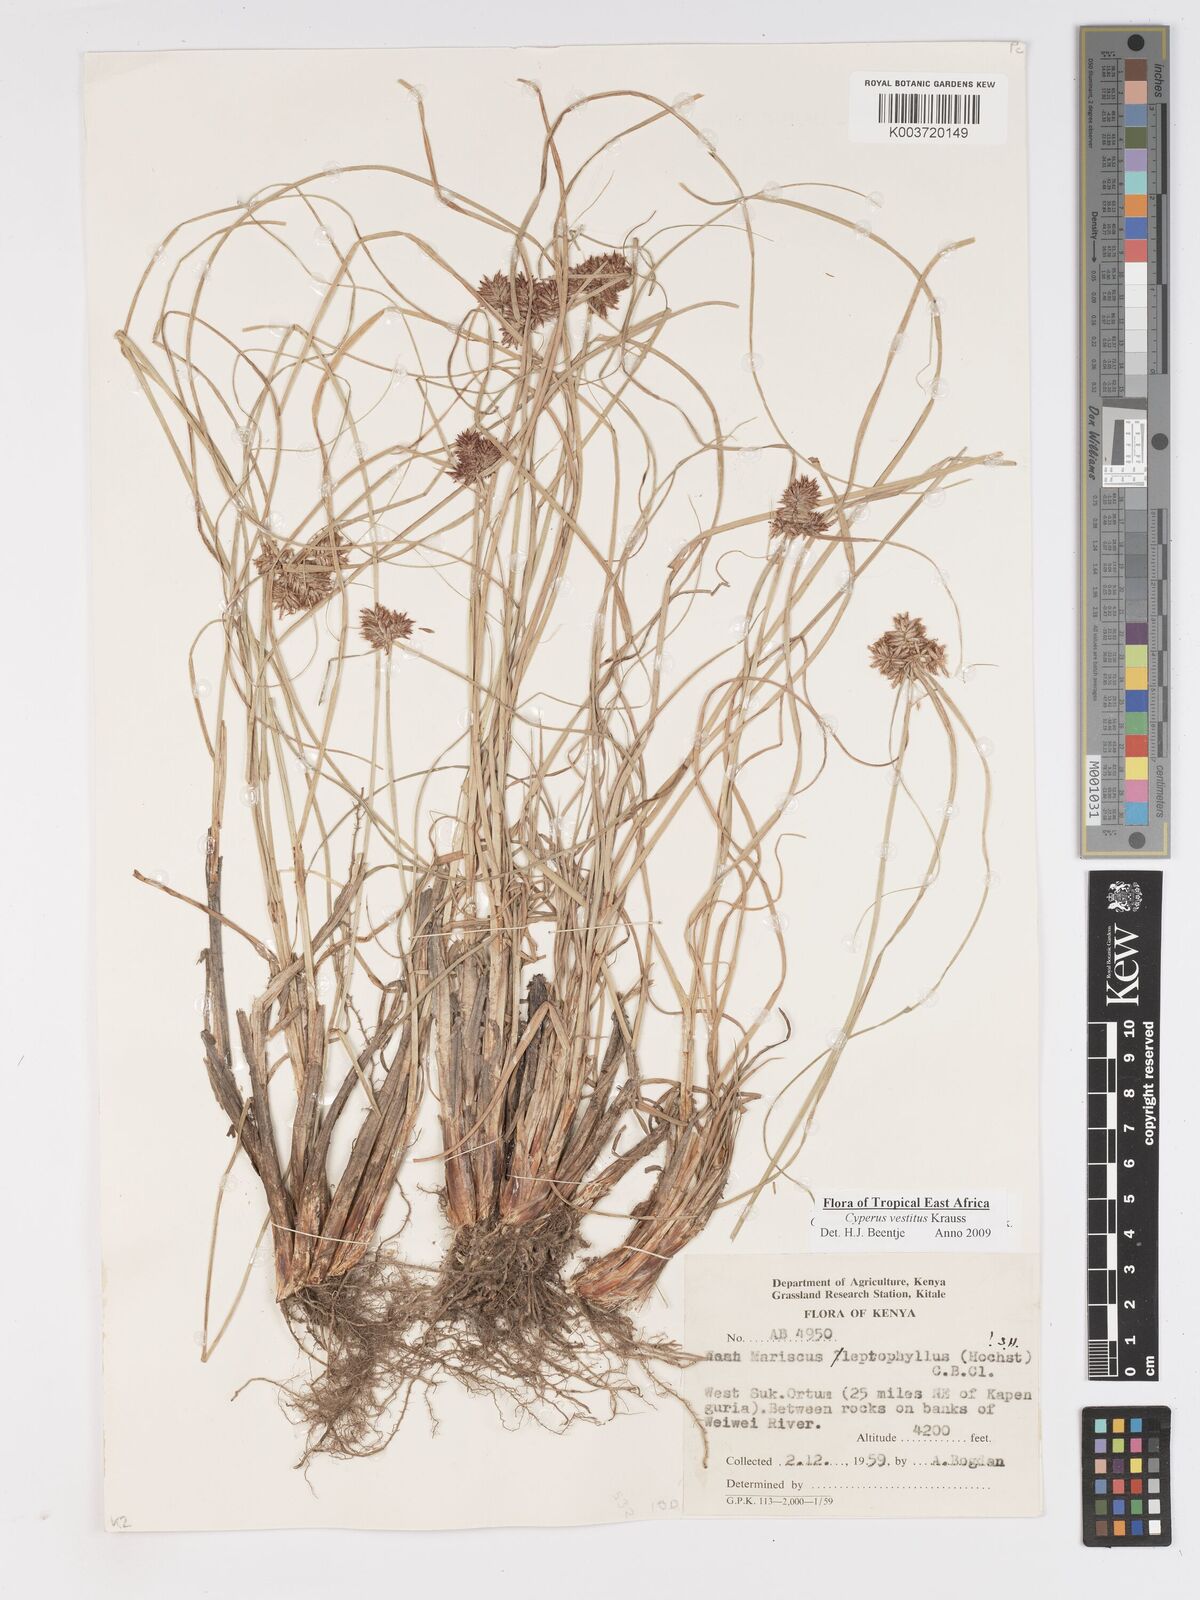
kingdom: Plantae
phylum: Tracheophyta
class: Liliopsida
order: Poales
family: Cyperaceae
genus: Cyperus
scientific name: Cyperus vestitus
